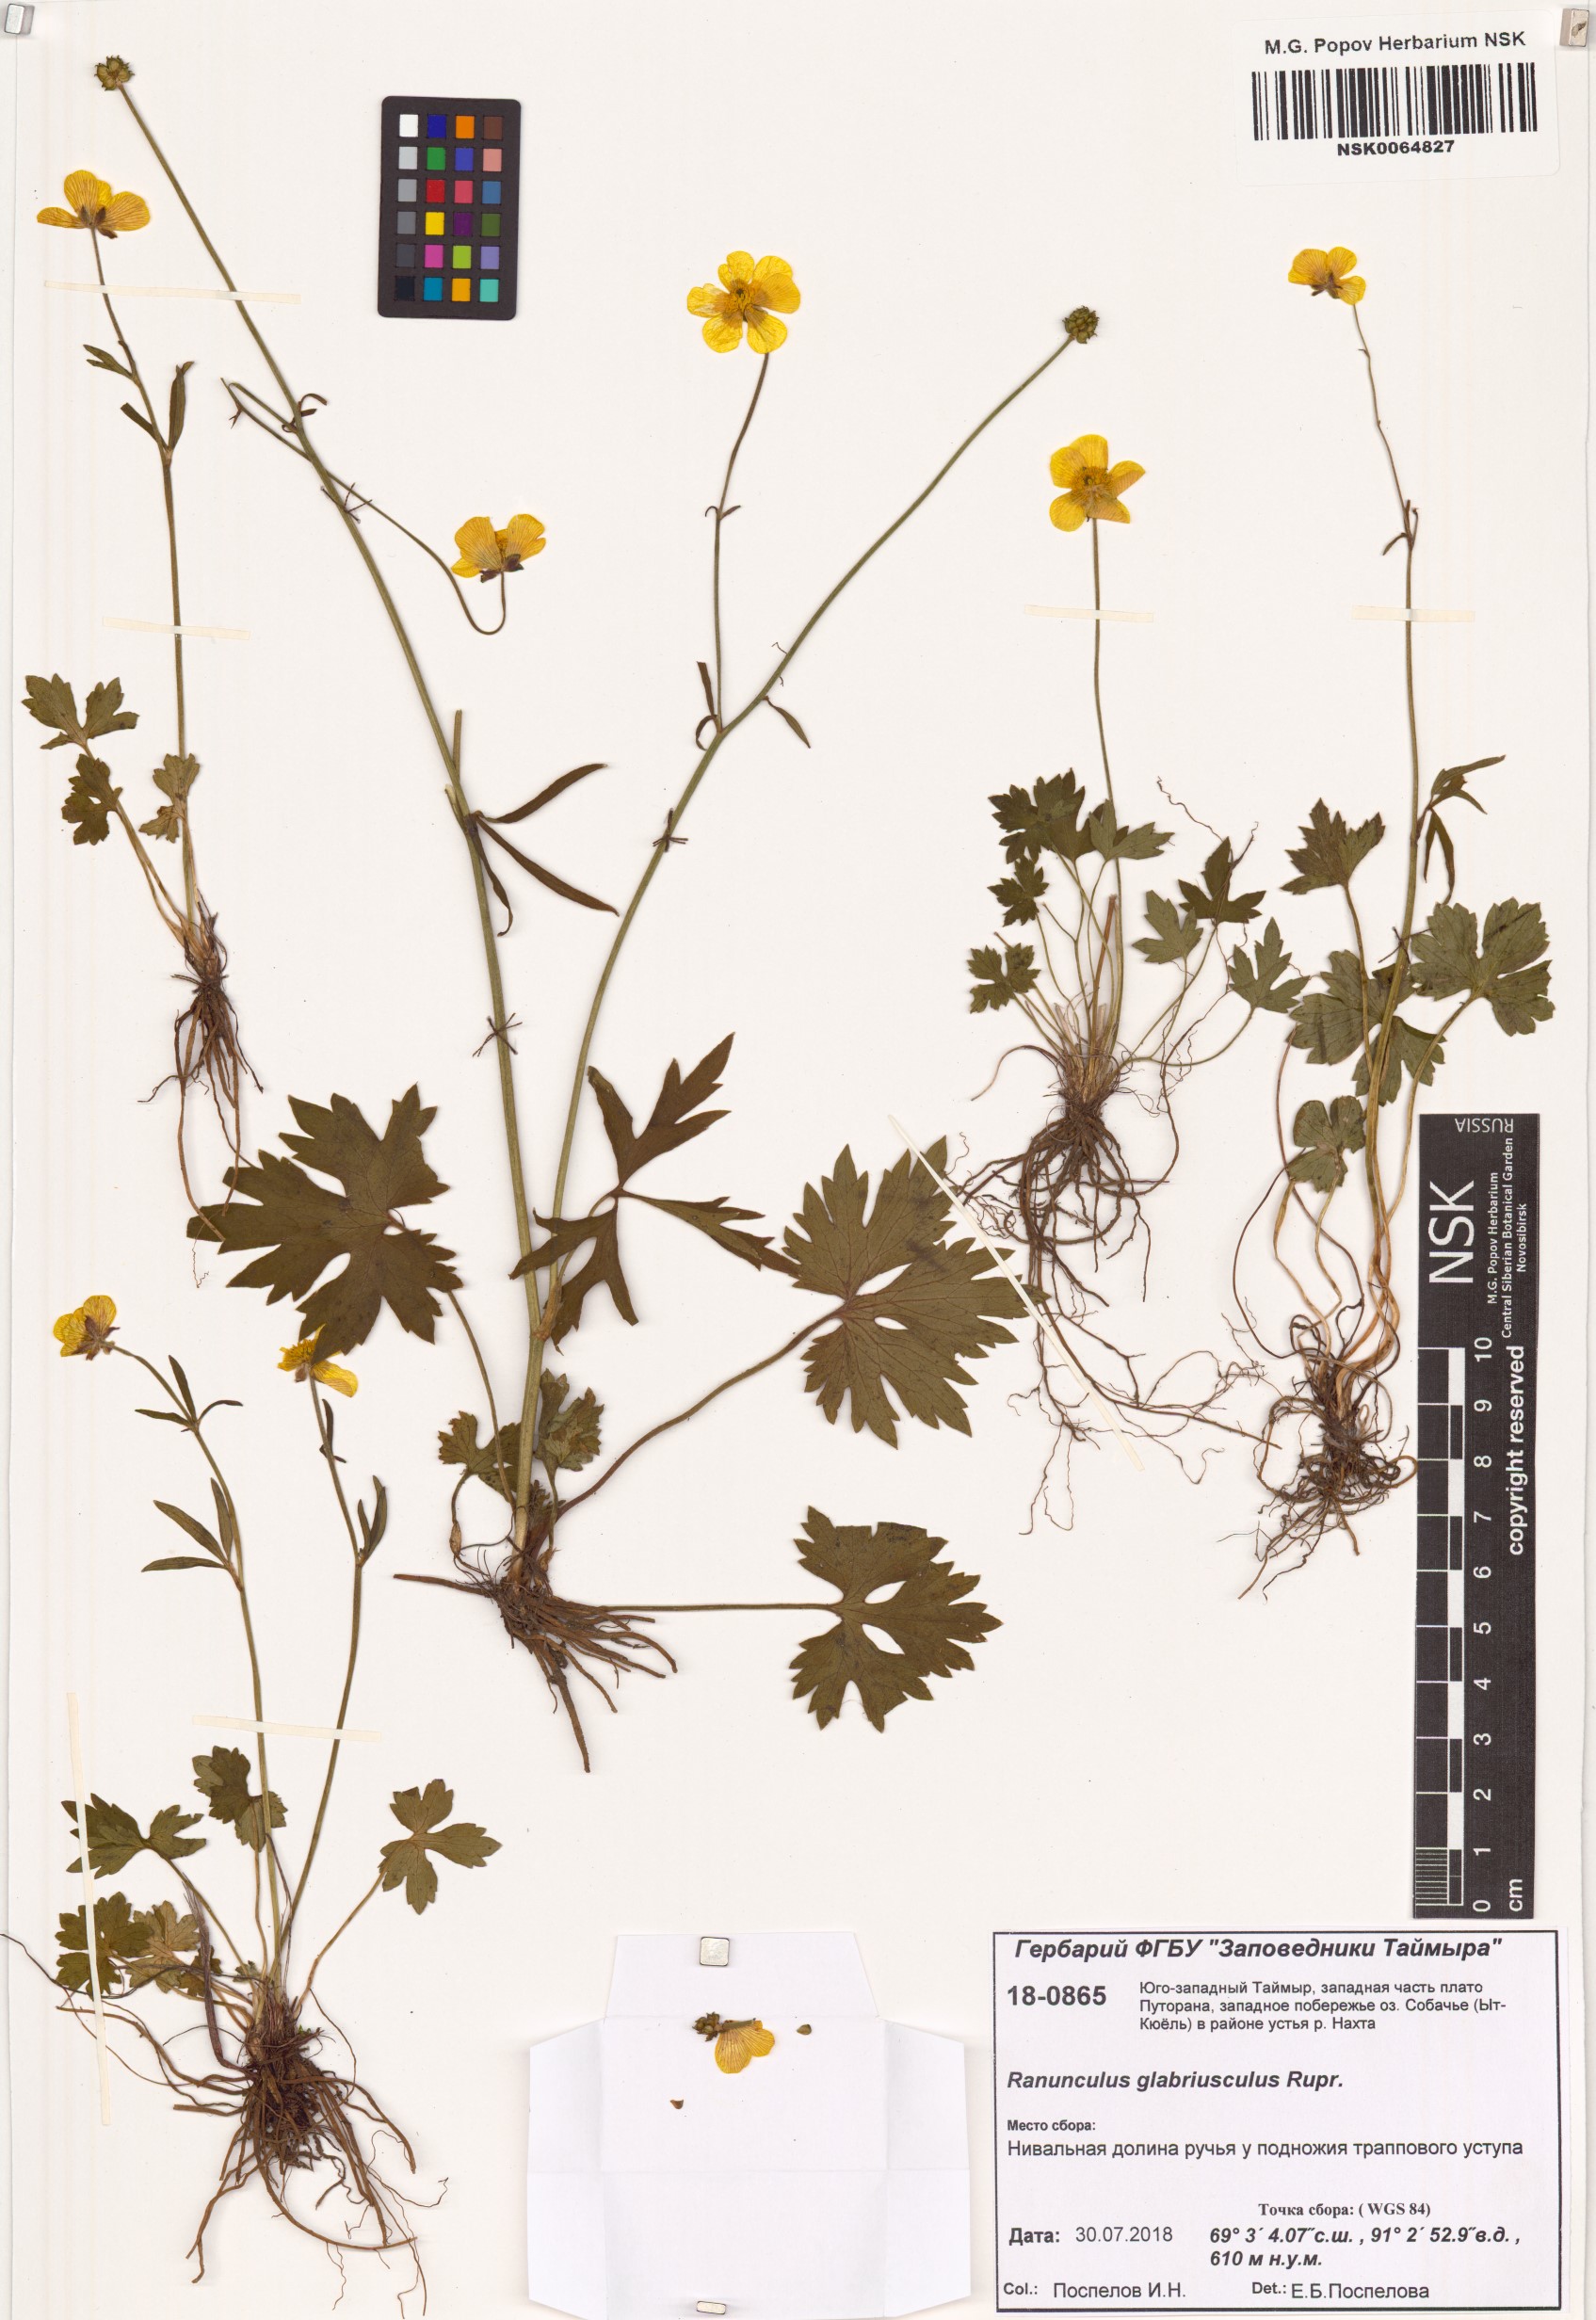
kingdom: Plantae
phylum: Tracheophyta
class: Magnoliopsida
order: Ranunculales
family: Ranunculaceae
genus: Ranunculus
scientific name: Ranunculus propinquus
